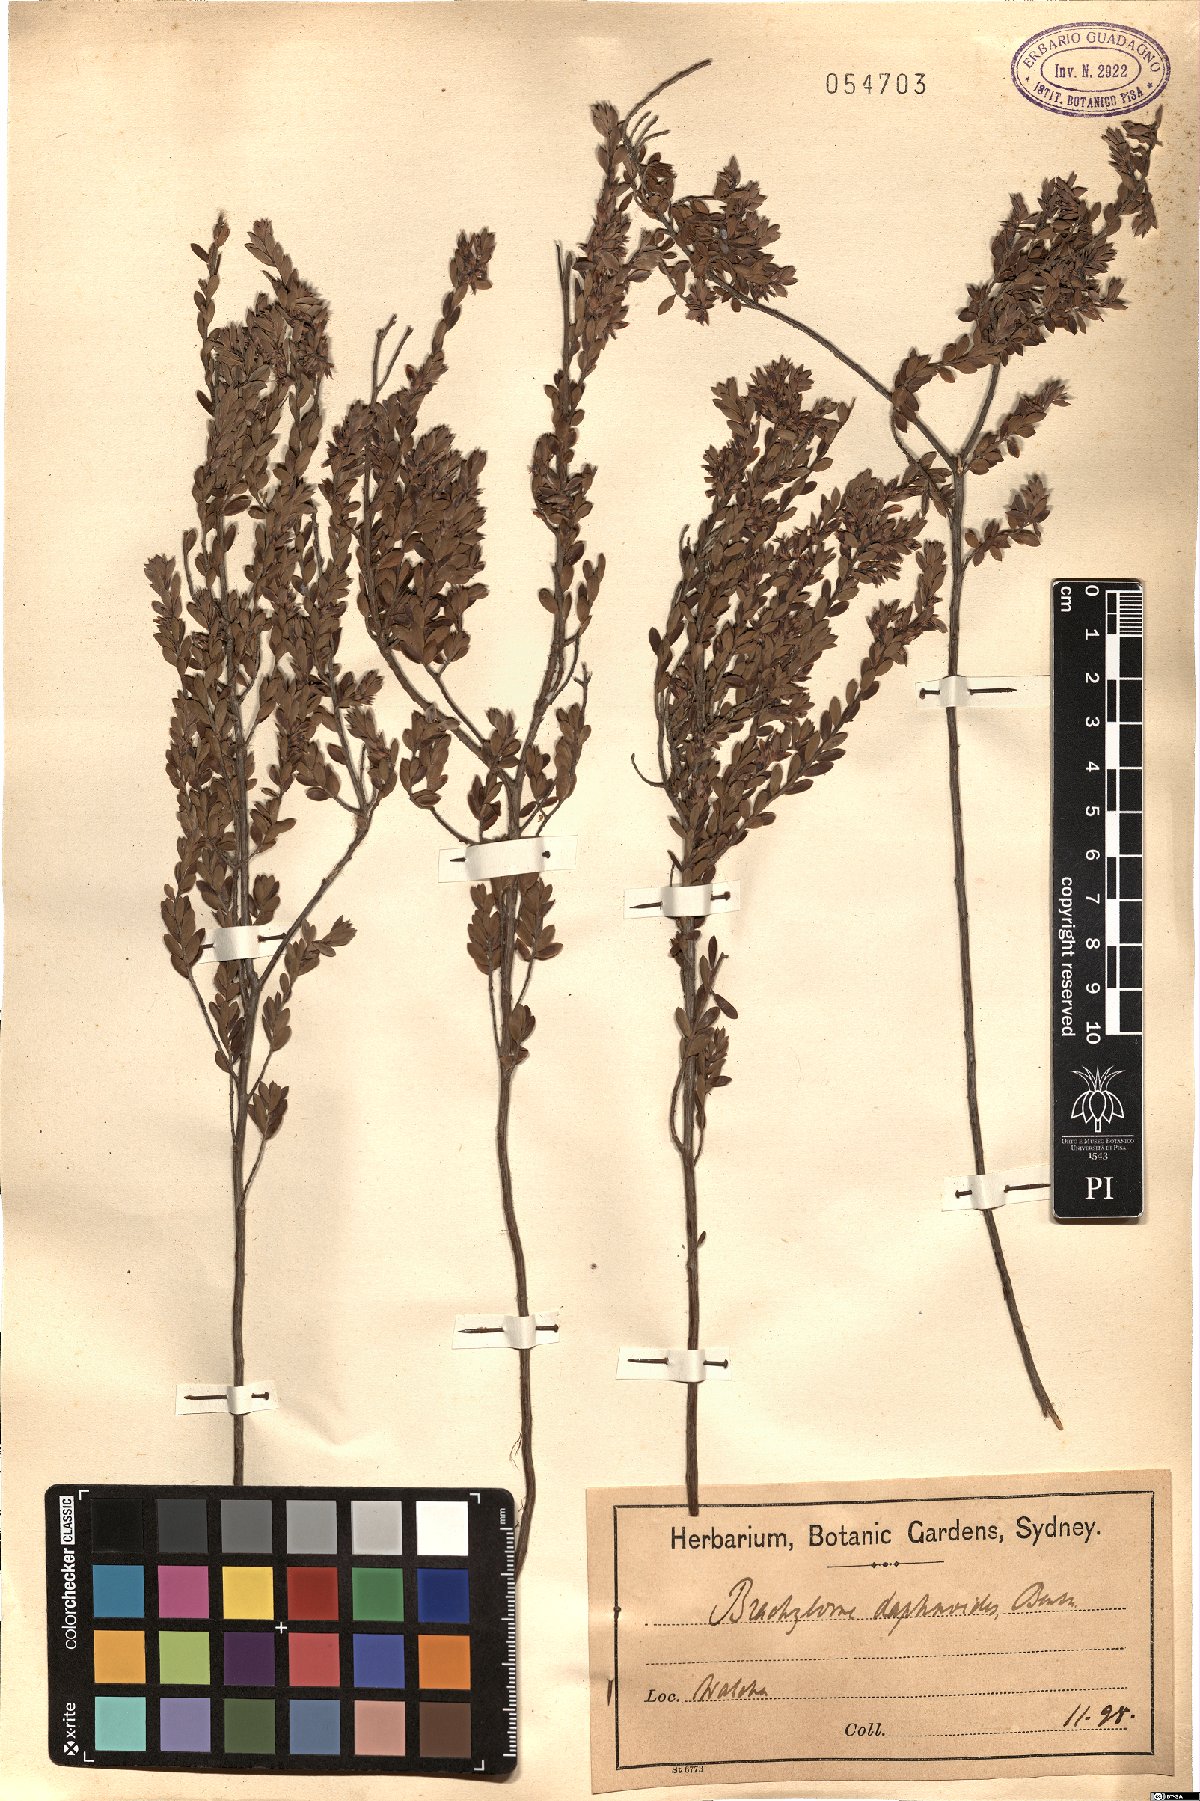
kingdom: Plantae
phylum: Tracheophyta
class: Magnoliopsida
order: Ericales
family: Ericaceae
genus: Brachyloma
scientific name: Brachyloma daphnoides
